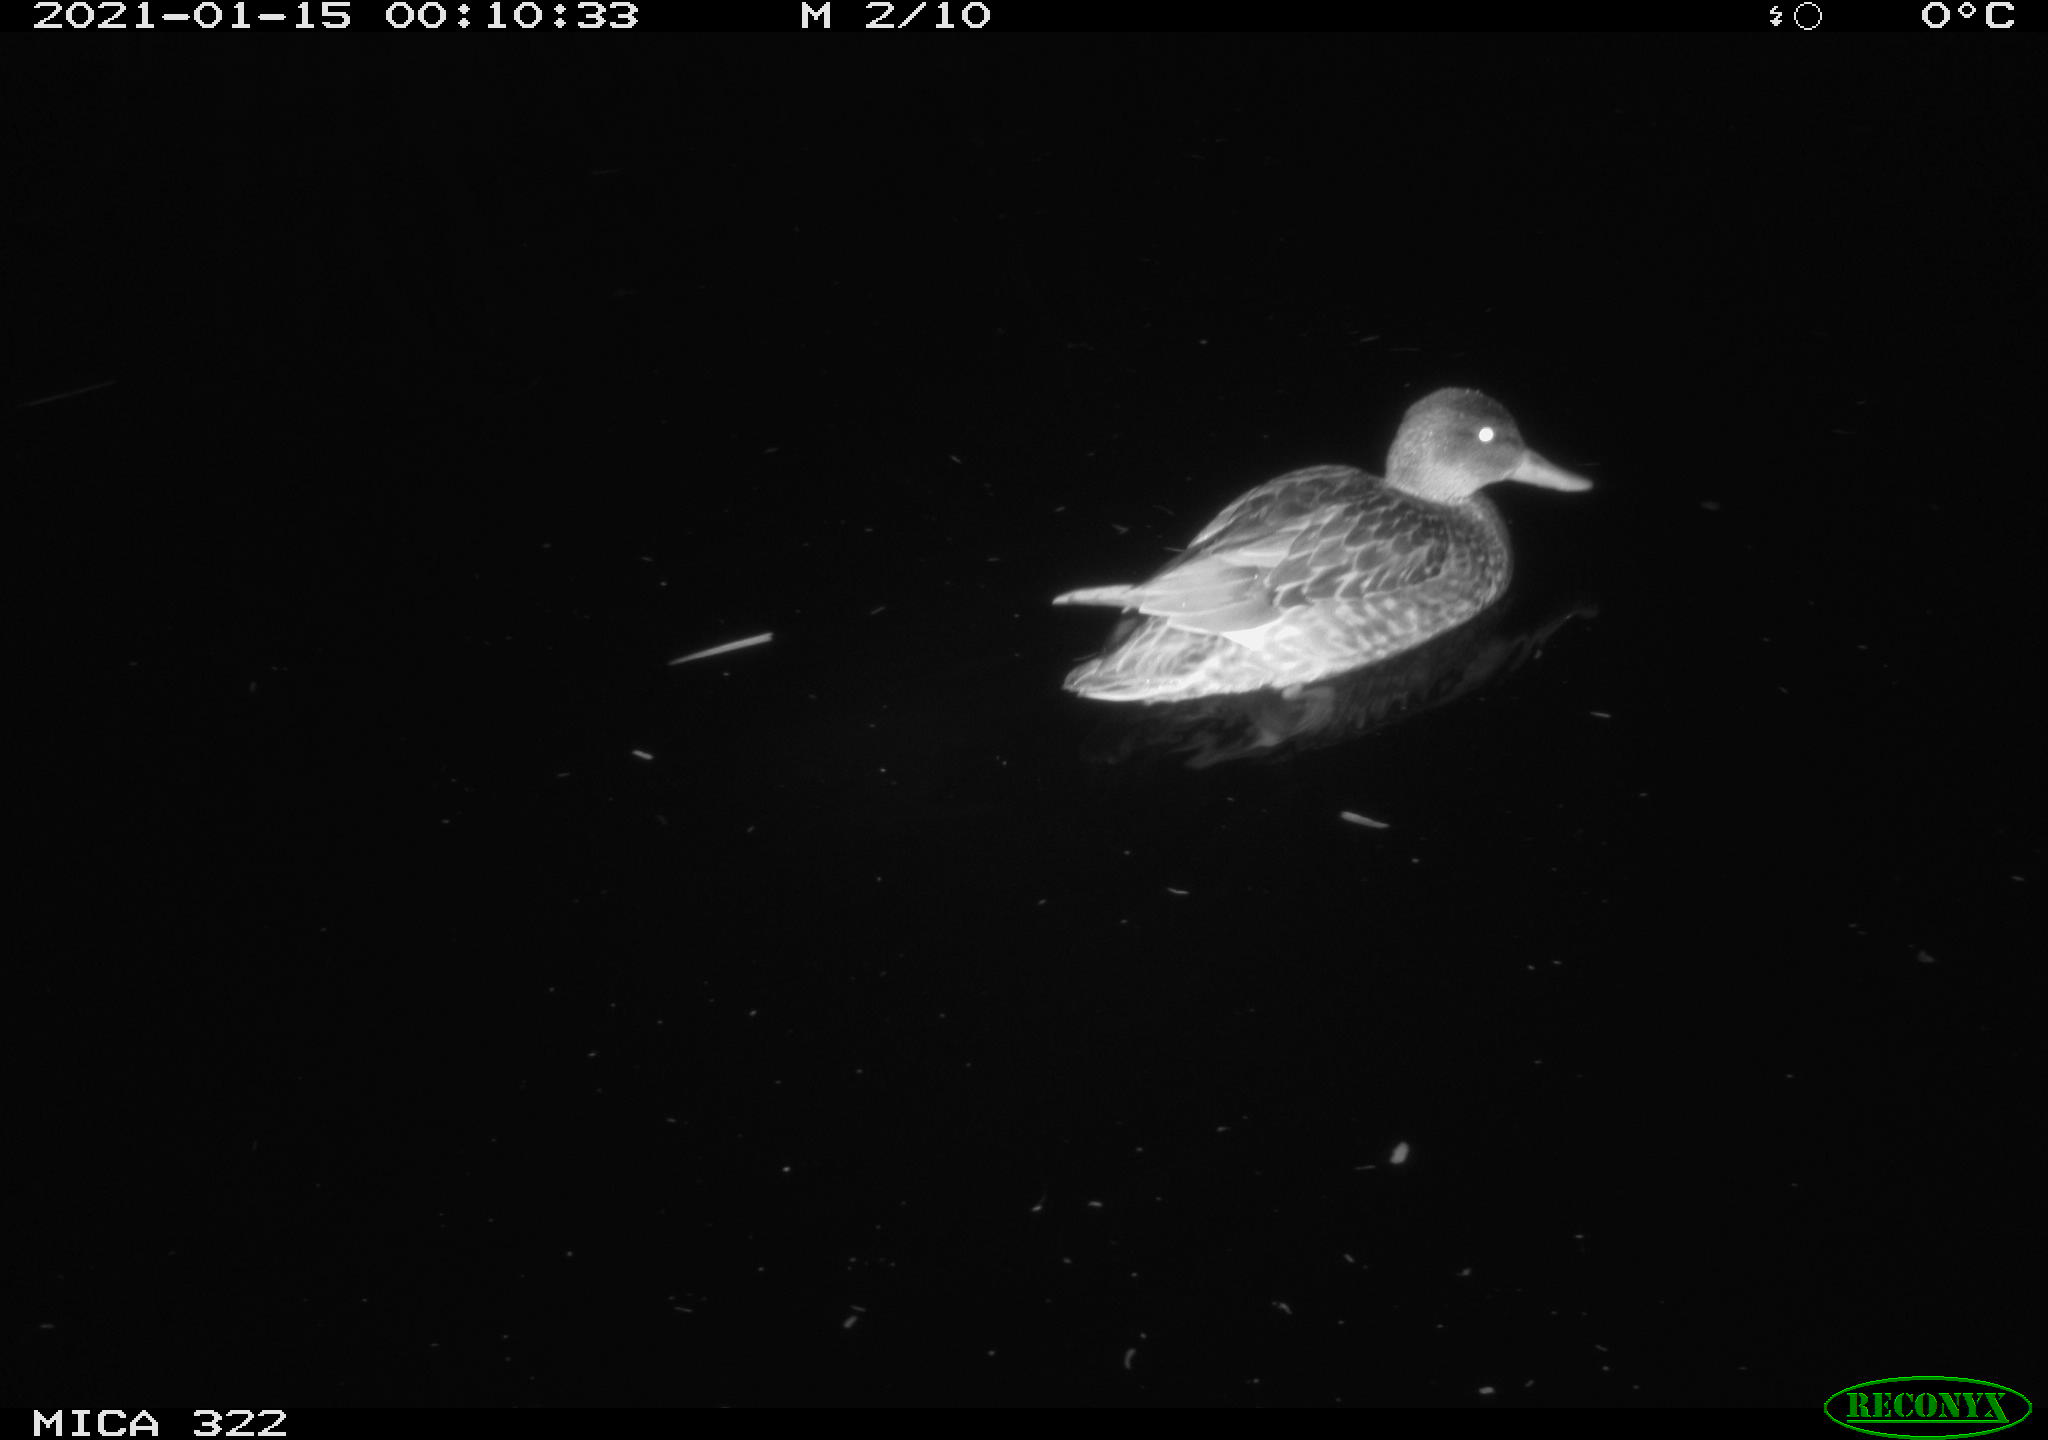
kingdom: Animalia
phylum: Chordata
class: Aves
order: Anseriformes
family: Anatidae
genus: Anas
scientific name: Anas platyrhynchos
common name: Mallard
